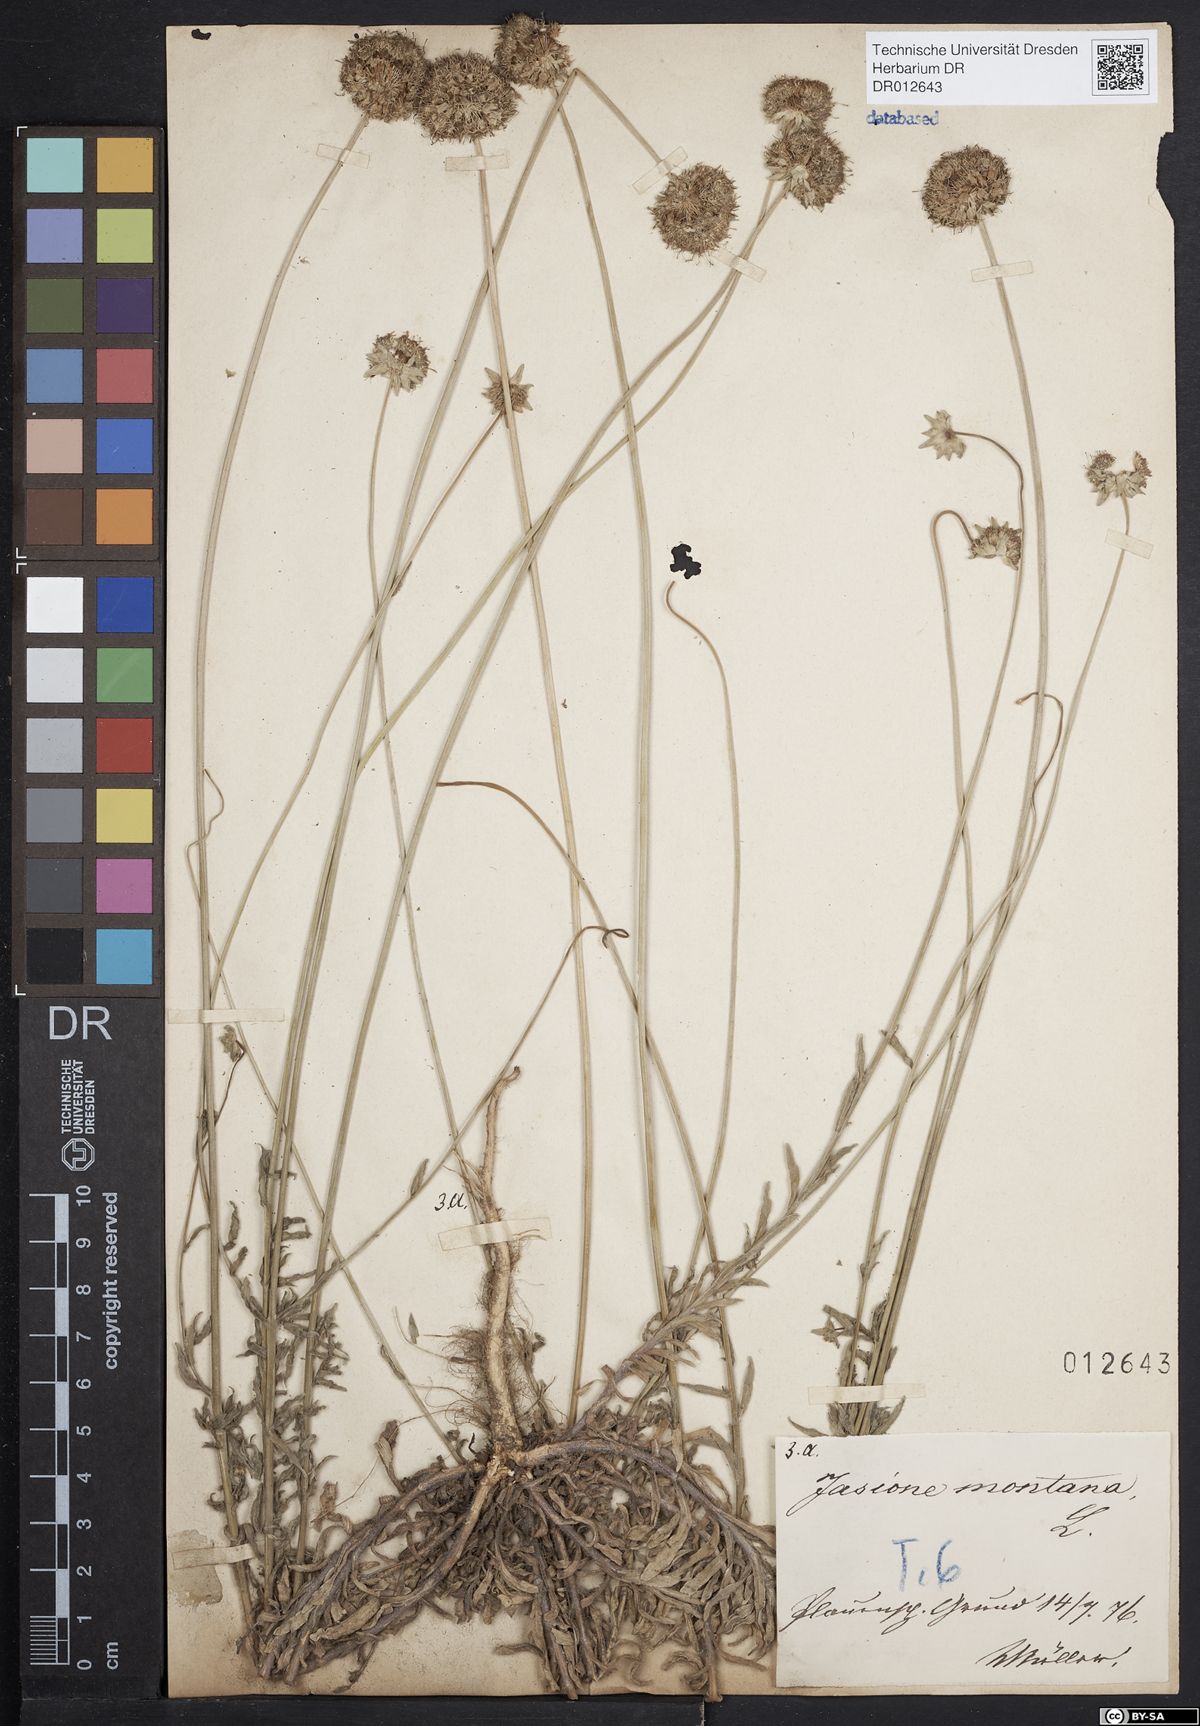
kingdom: Plantae
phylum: Tracheophyta
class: Magnoliopsida
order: Asterales
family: Campanulaceae
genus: Jasione
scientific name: Jasione montana
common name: Sheep's-bit
